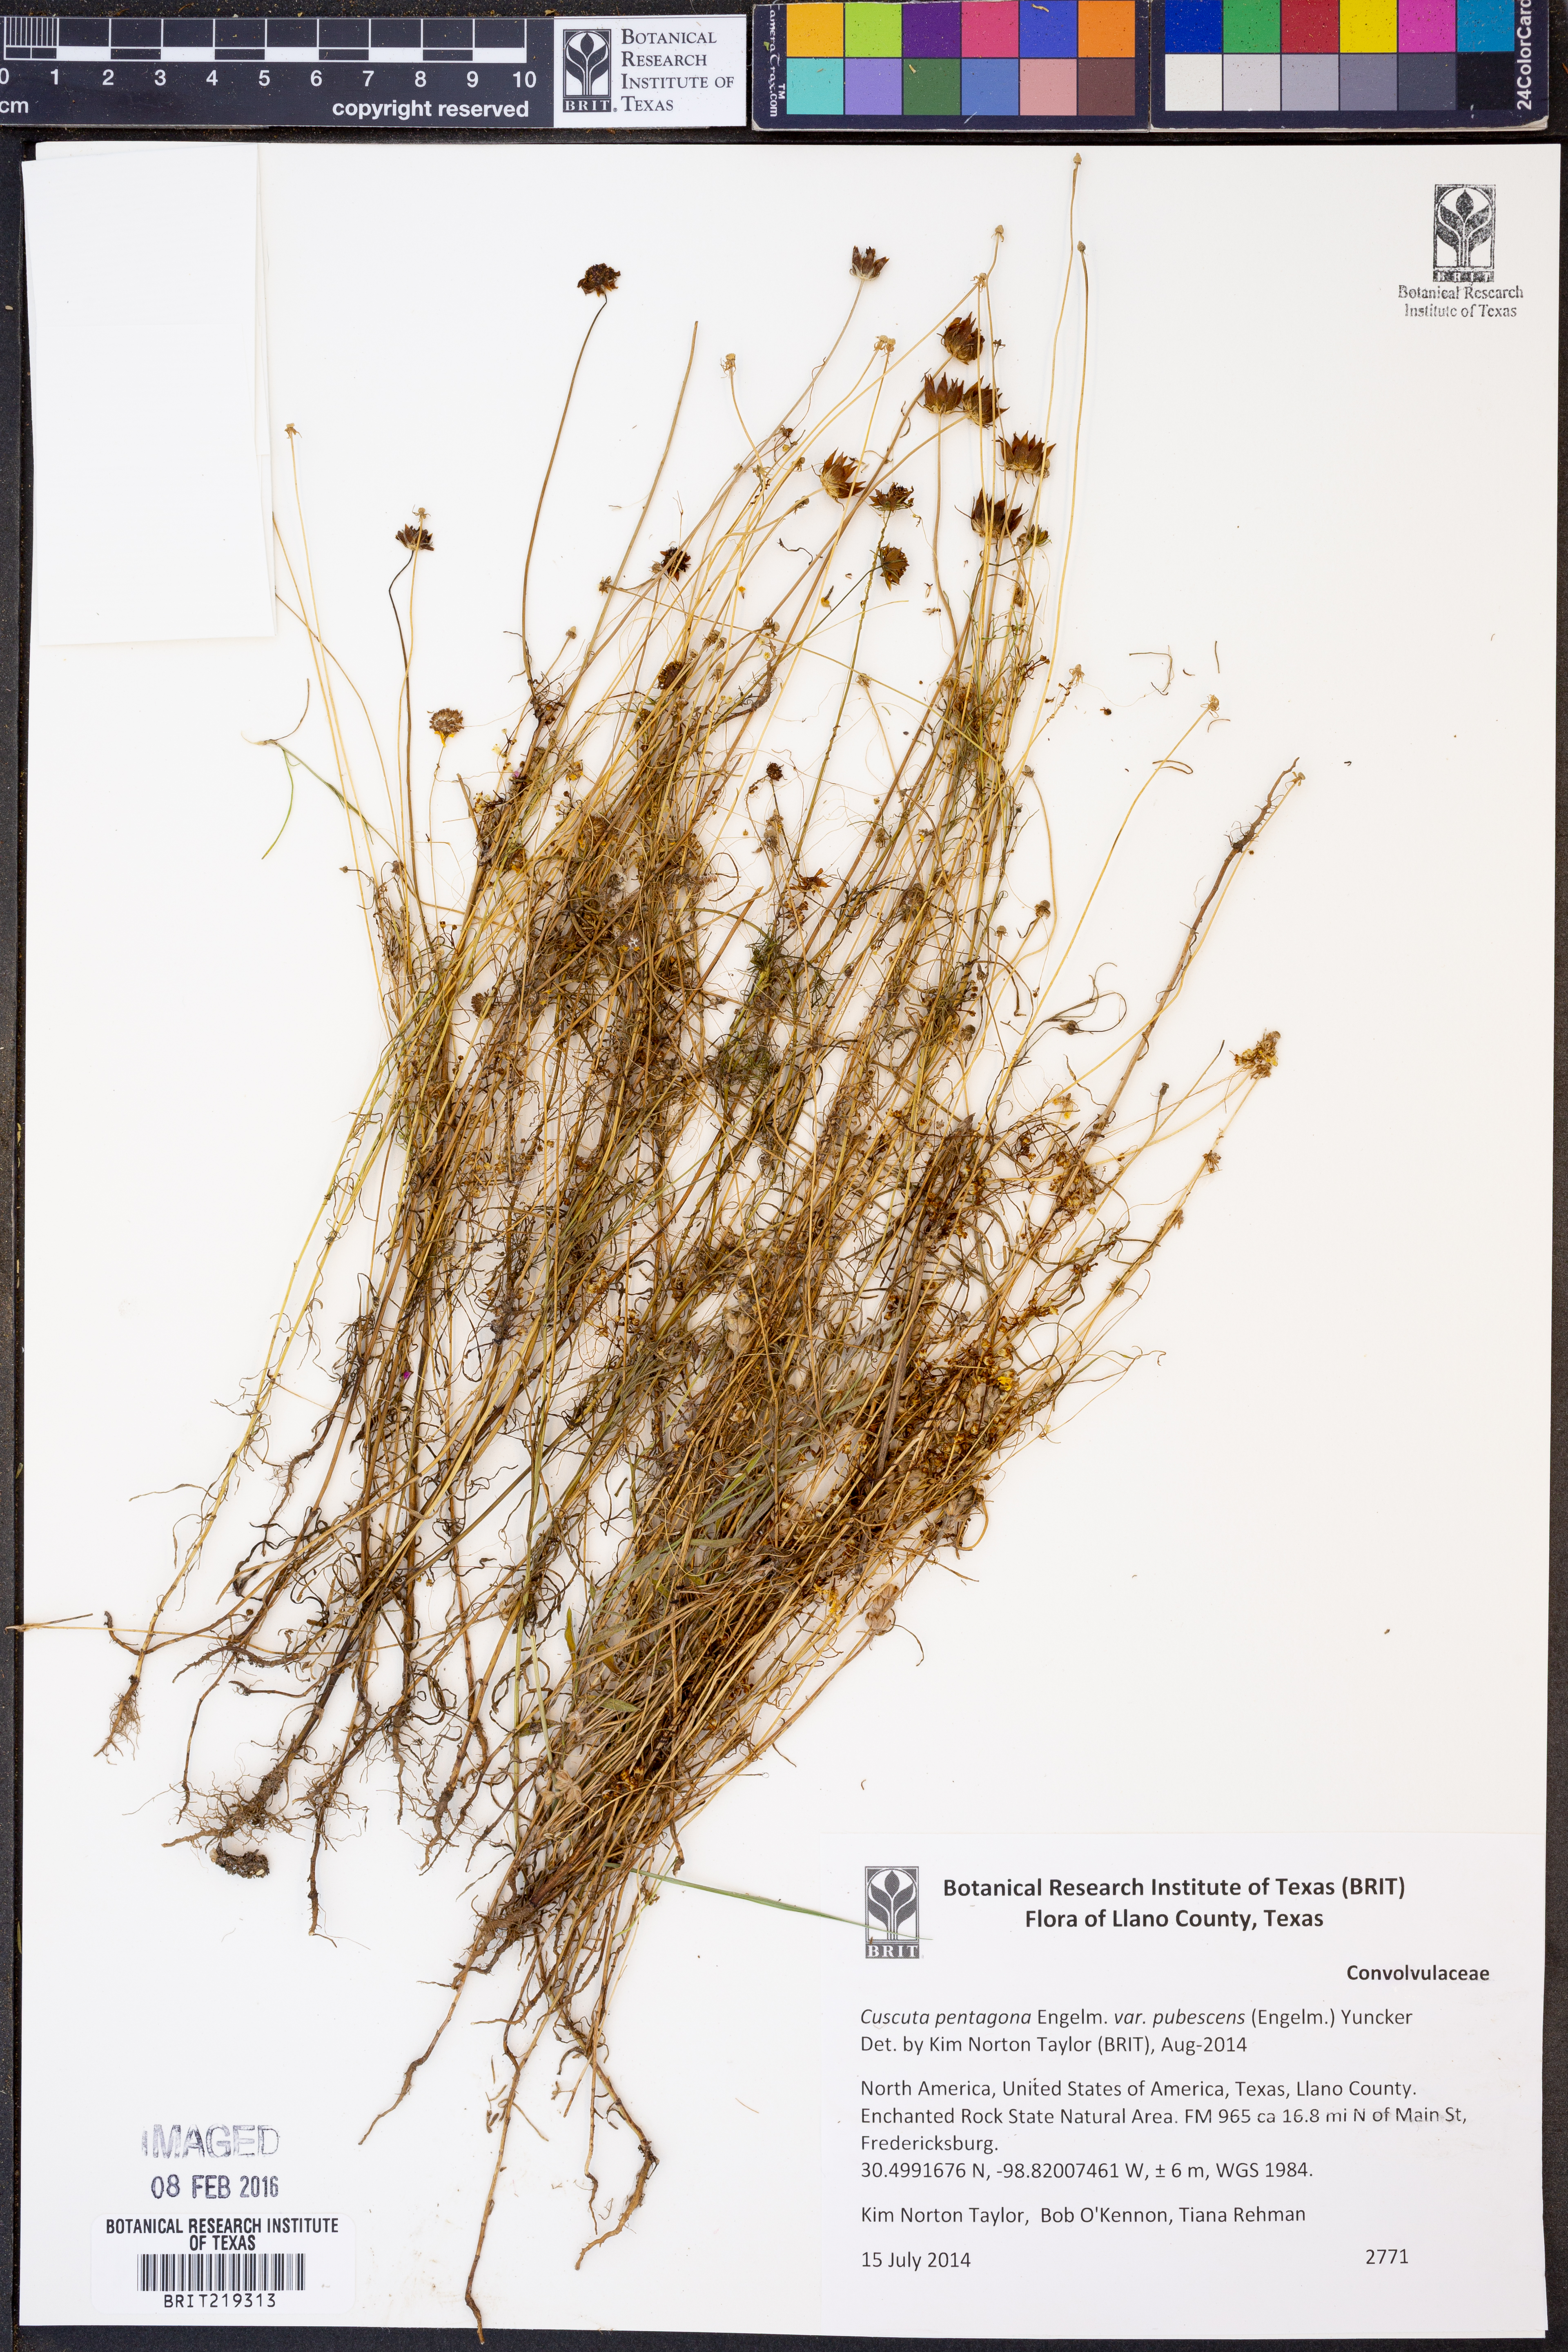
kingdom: Plantae
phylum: Tracheophyta
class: Magnoliopsida
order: Solanales
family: Convolvulaceae
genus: Cuscuta
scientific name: Cuscuta glabrior
